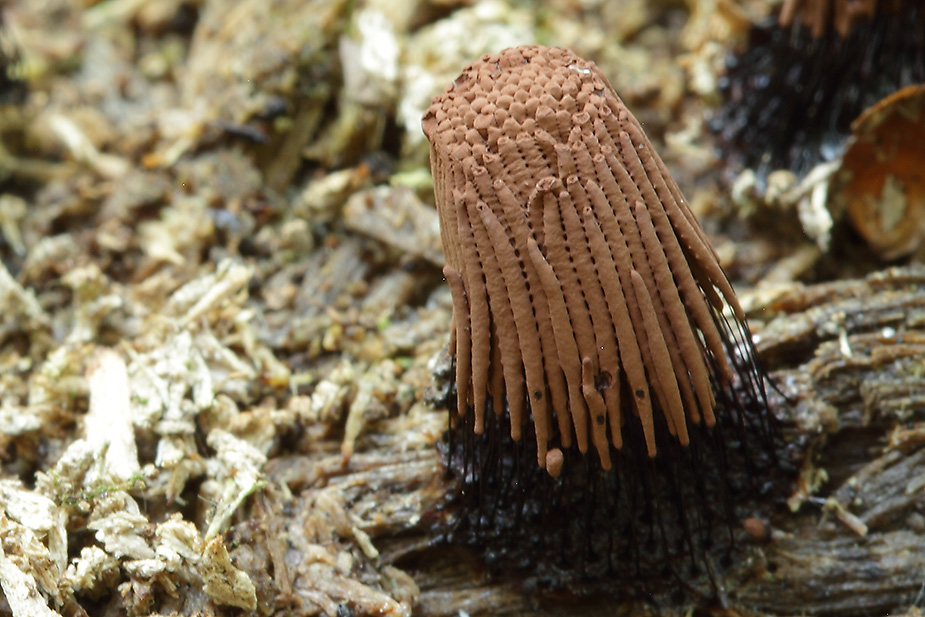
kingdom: Protozoa
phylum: Mycetozoa
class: Myxomycetes
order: Stemonitidales
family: Stemonitidaceae
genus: Stemonitis
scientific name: Stemonitis axifera
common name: rødbrun støvkølle
